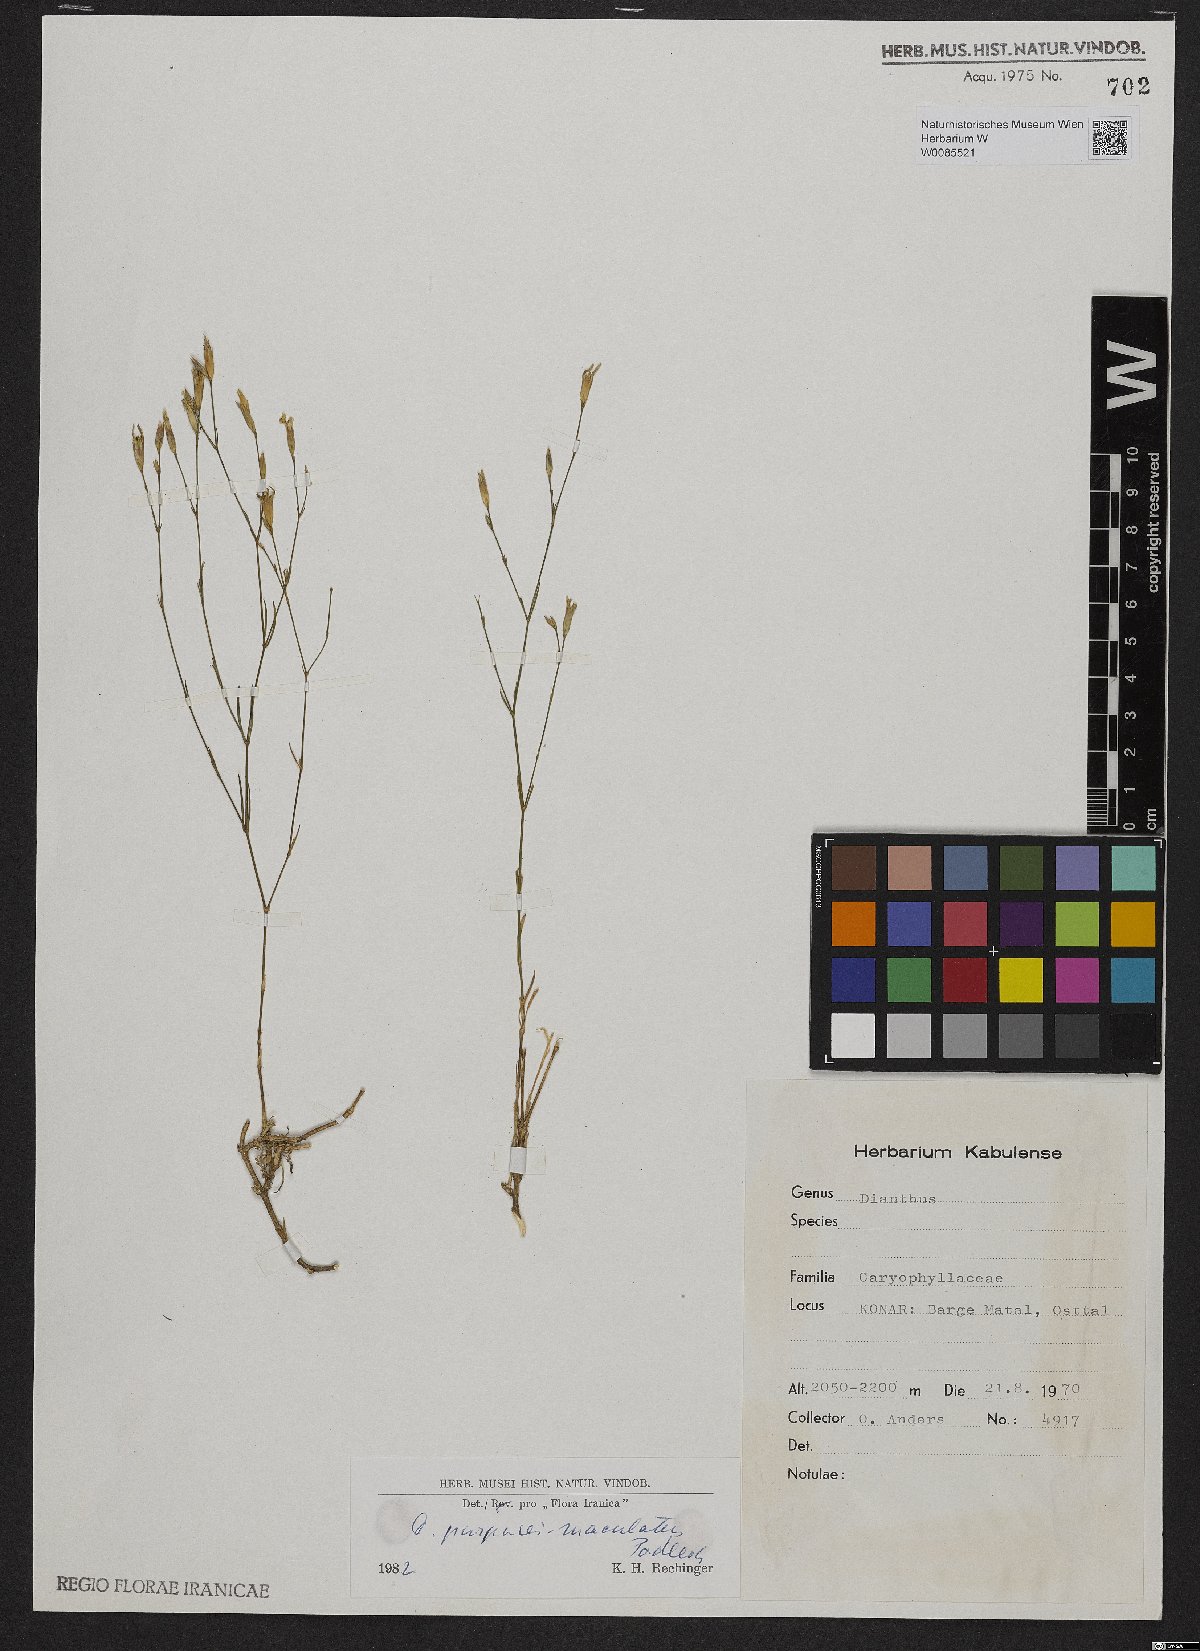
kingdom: Plantae
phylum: Tracheophyta
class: Magnoliopsida
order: Caryophyllales
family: Caryophyllaceae
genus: Dianthus
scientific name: Dianthus purpureimaculatus
